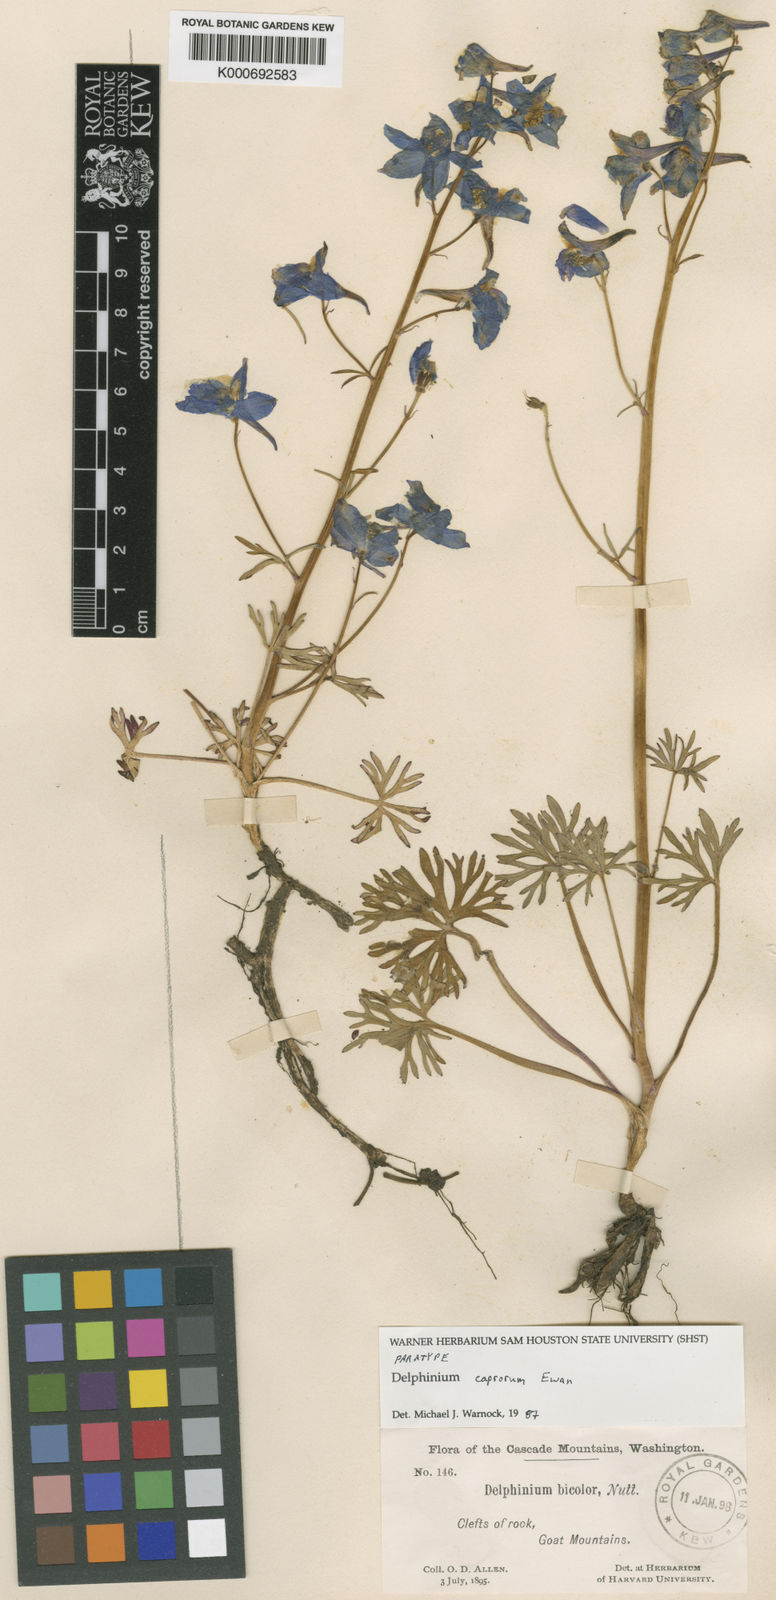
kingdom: Plantae
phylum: Tracheophyta
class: Magnoliopsida
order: Ranunculales
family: Ranunculaceae
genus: Delphinium
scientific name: Delphinium glareosum
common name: Olympic mountain larkspur
